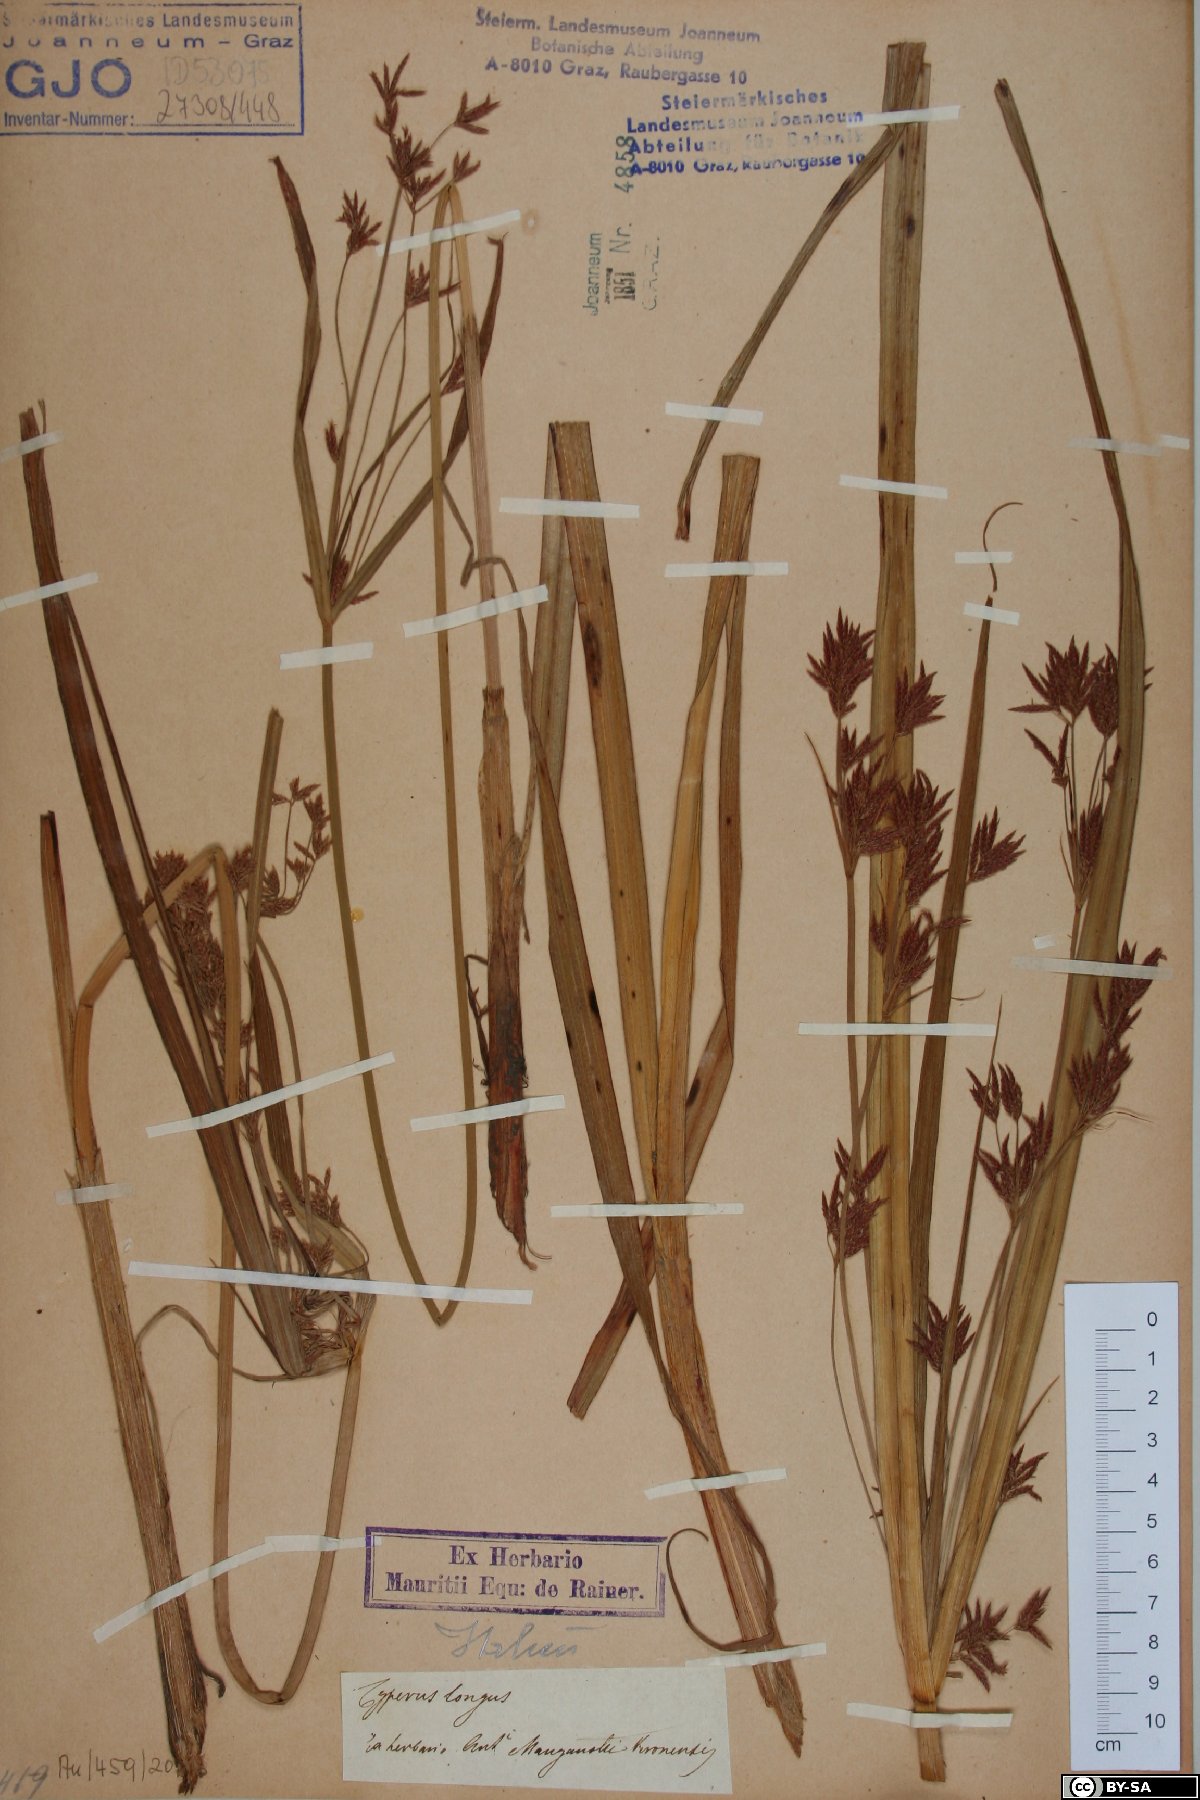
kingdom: Plantae
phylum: Tracheophyta
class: Liliopsida
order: Poales
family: Cyperaceae
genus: Cyperus
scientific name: Cyperus longus
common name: Galingale
